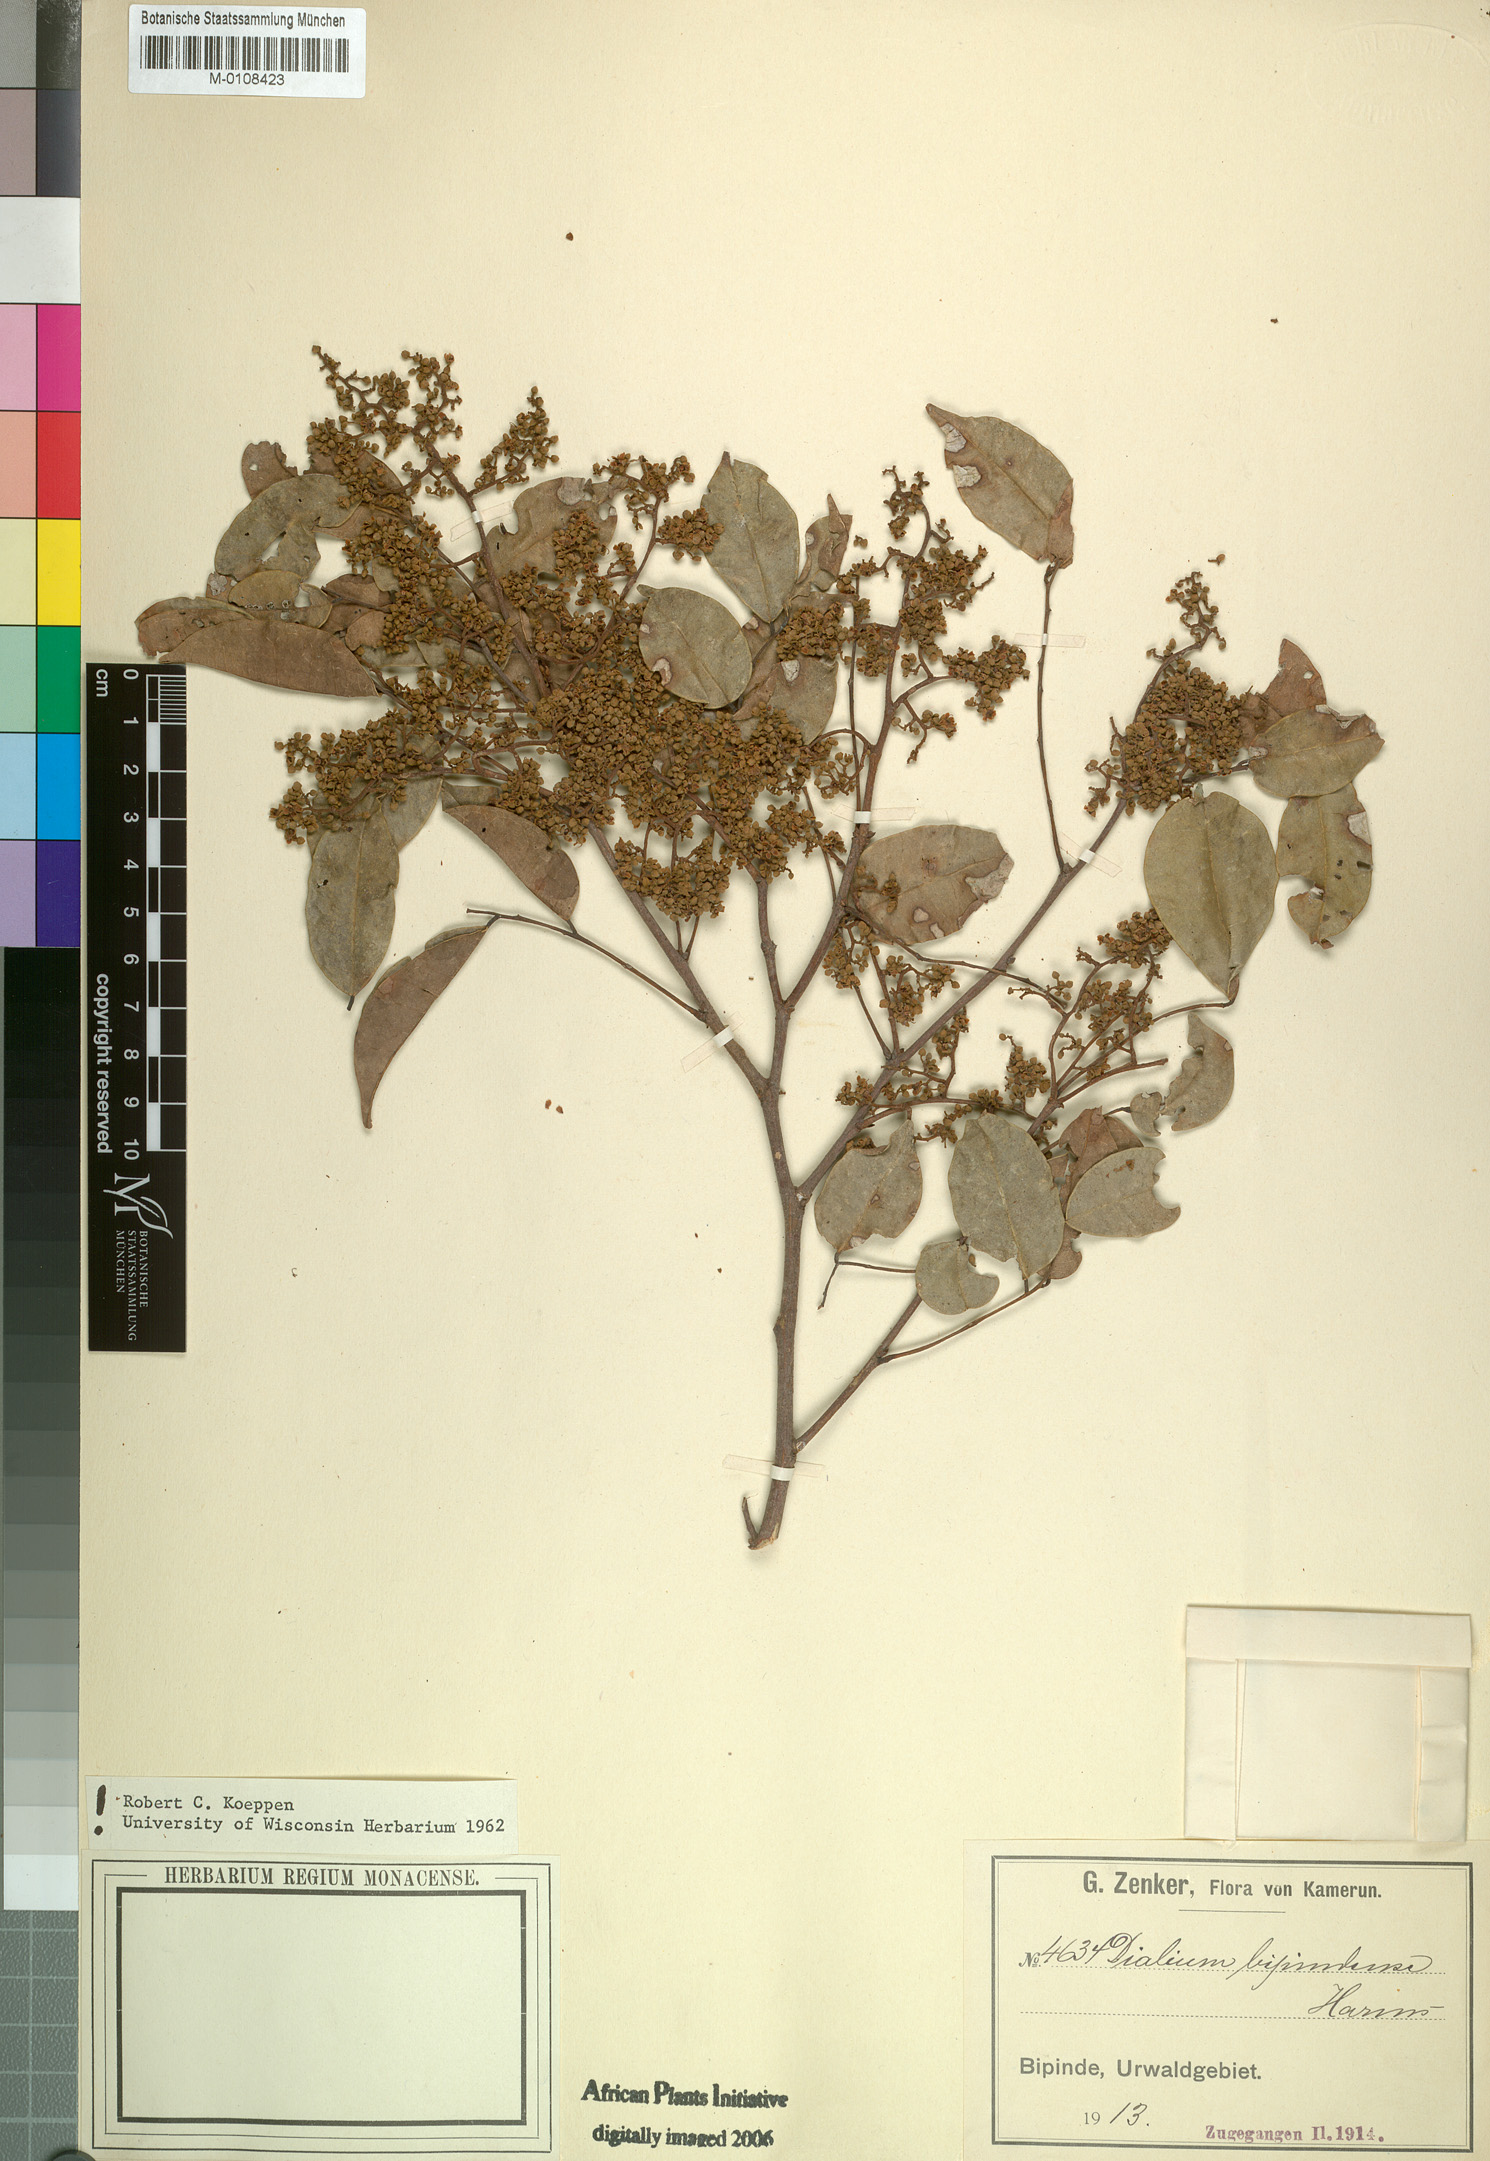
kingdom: Plantae
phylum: Tracheophyta
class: Magnoliopsida
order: Fabales
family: Fabaceae
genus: Dialium
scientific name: Dialium bipindense
